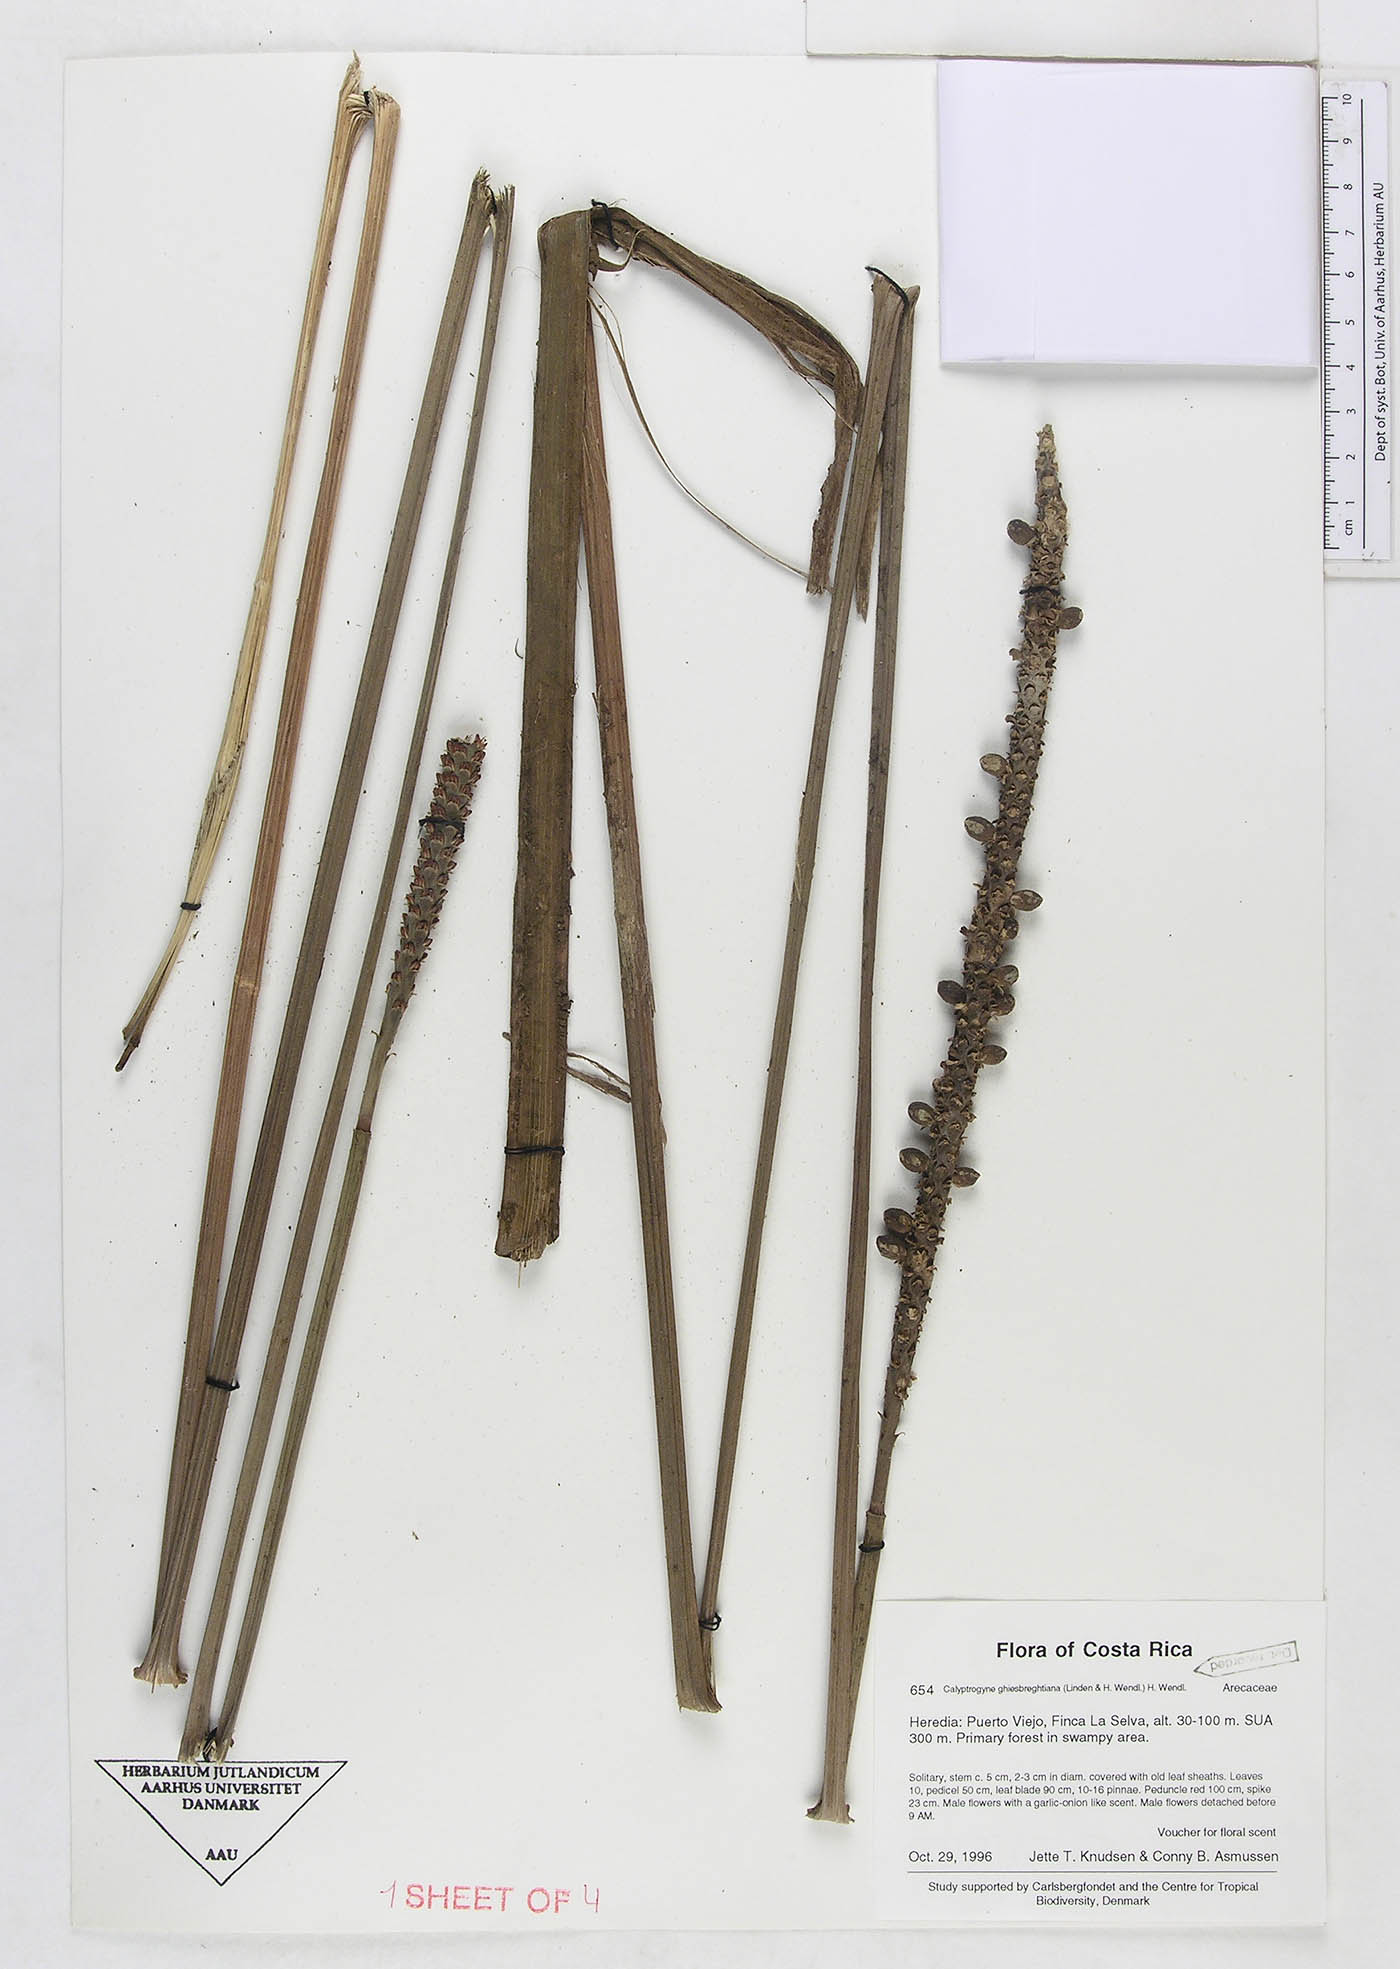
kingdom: Plantae
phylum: Tracheophyta
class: Liliopsida
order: Arecales
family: Arecaceae
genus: Calyptrogyne
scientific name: Calyptrogyne ghiesbreghtiana
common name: Coligallo
